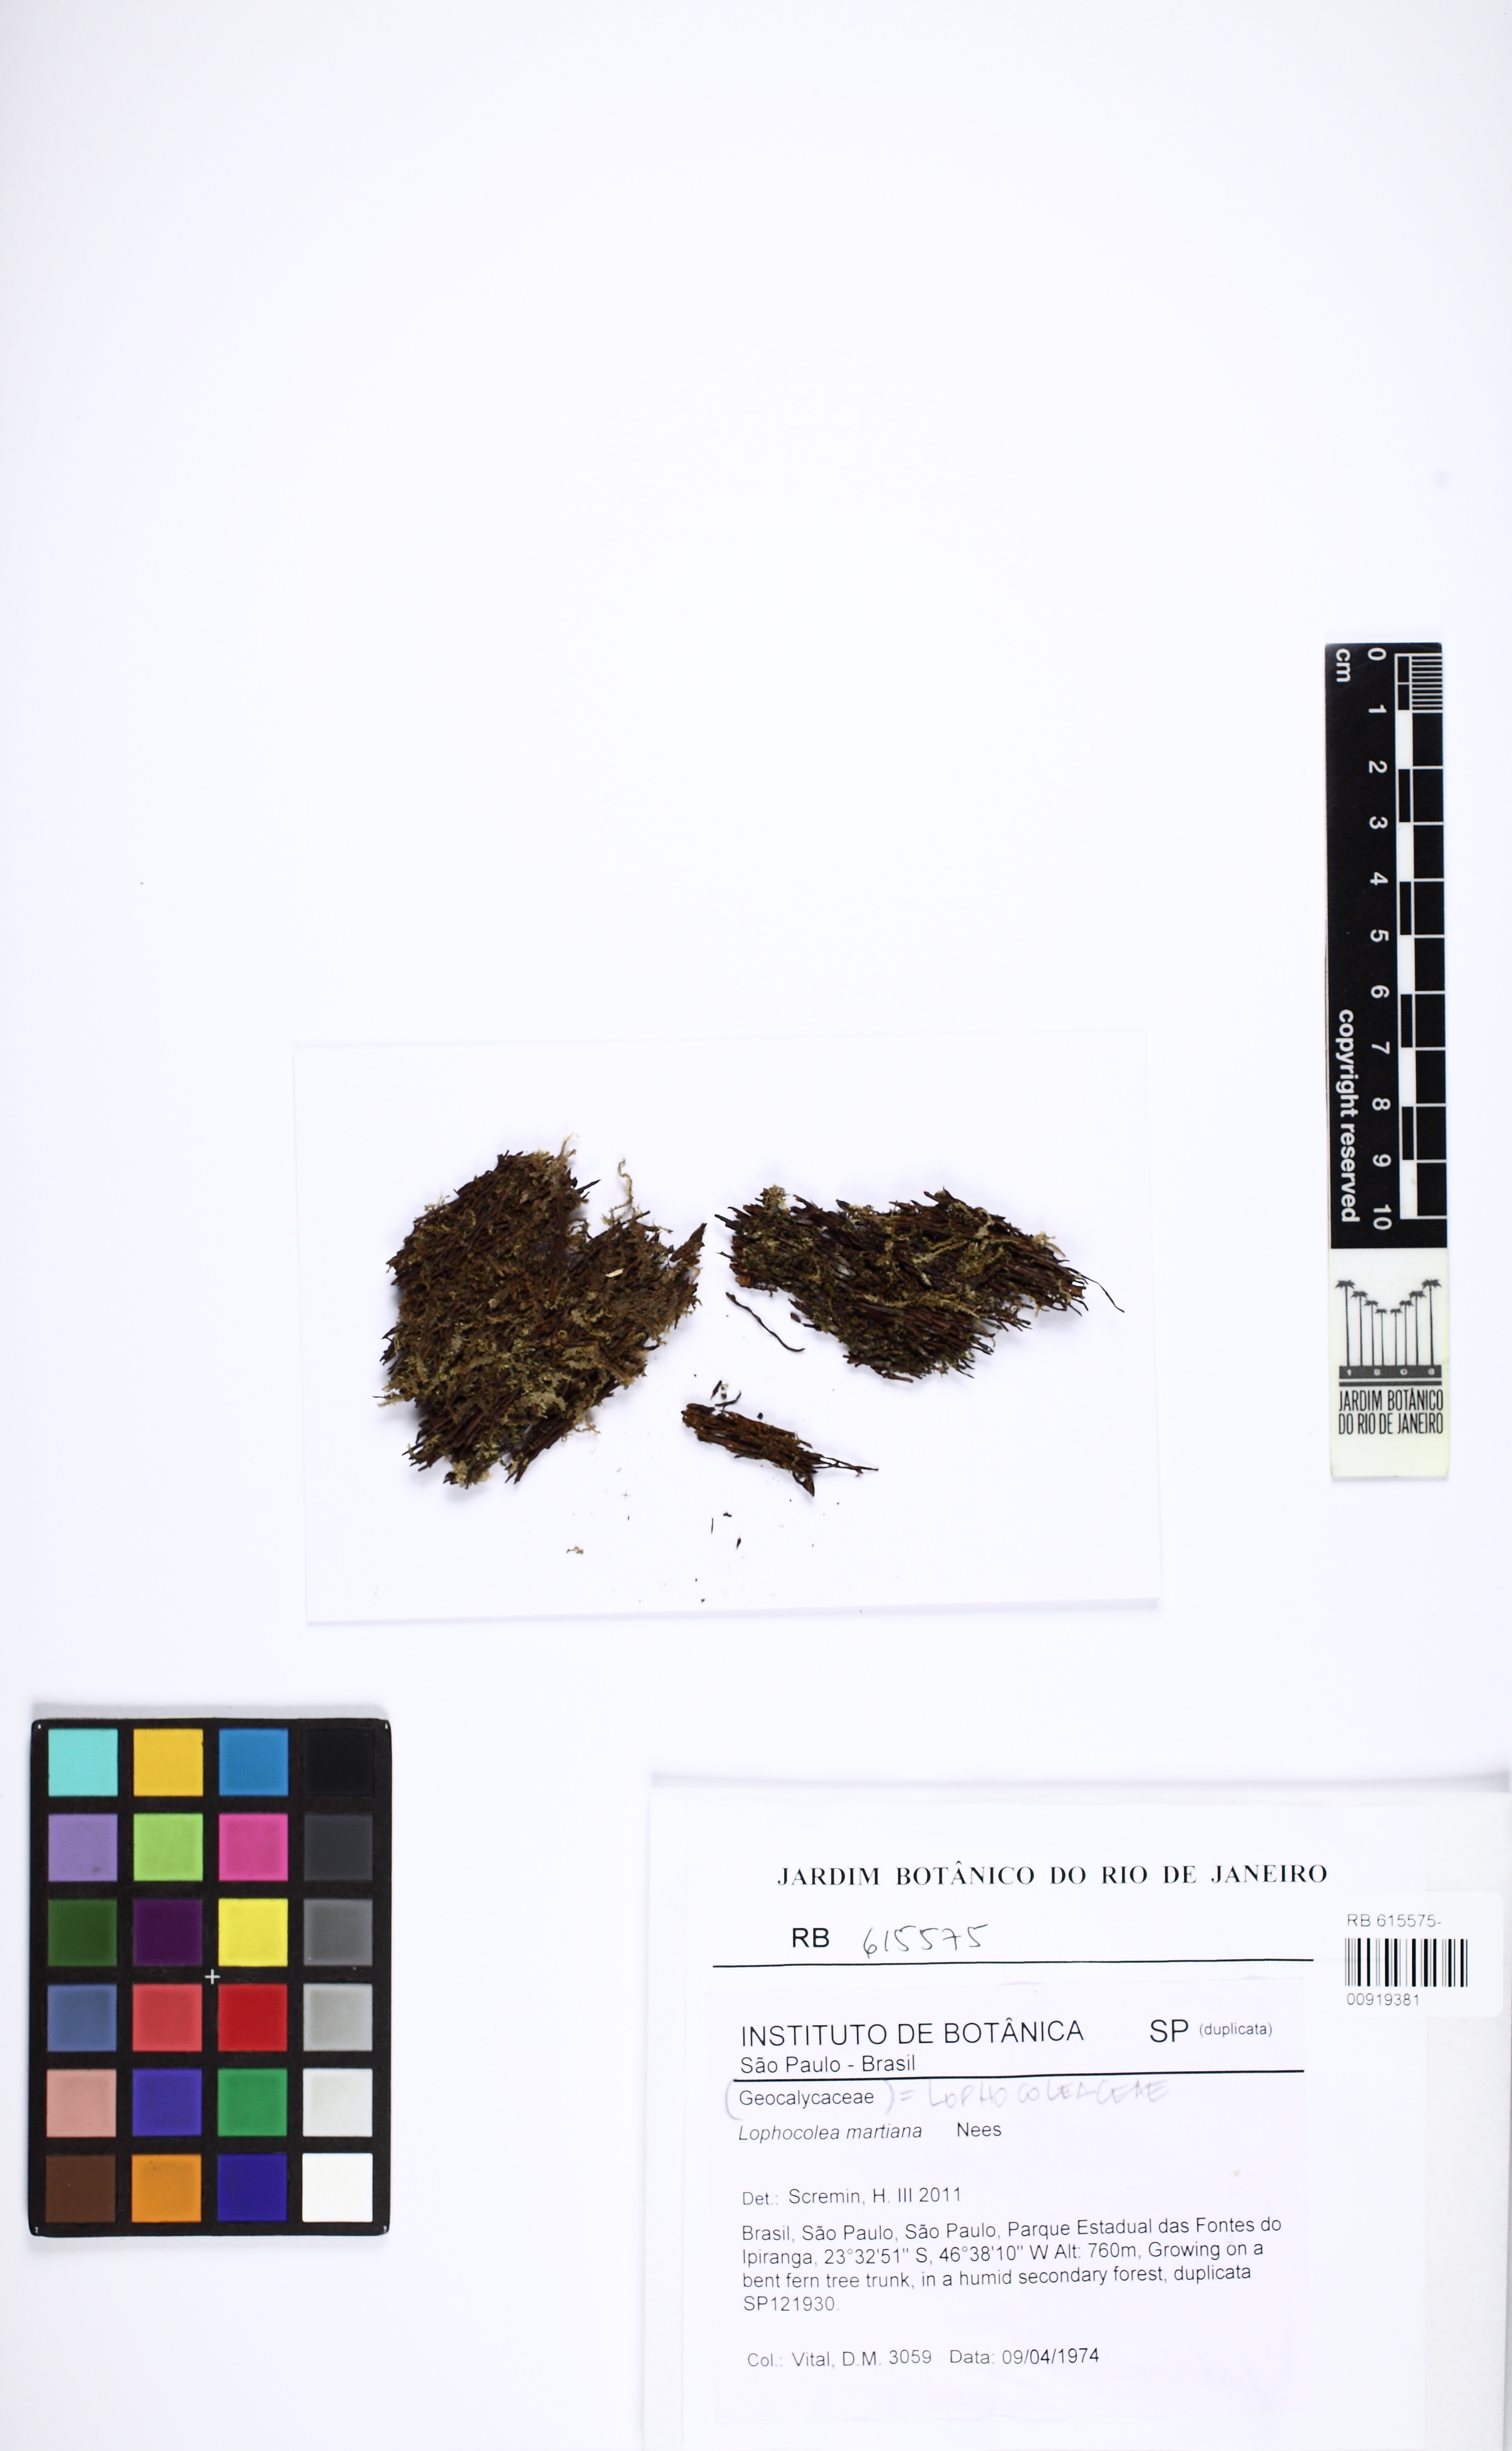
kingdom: Plantae
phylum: Marchantiophyta
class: Jungermanniopsida
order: Jungermanniales
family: Lophocoleaceae
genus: Cryptolophocolea
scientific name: Cryptolophocolea martiana
